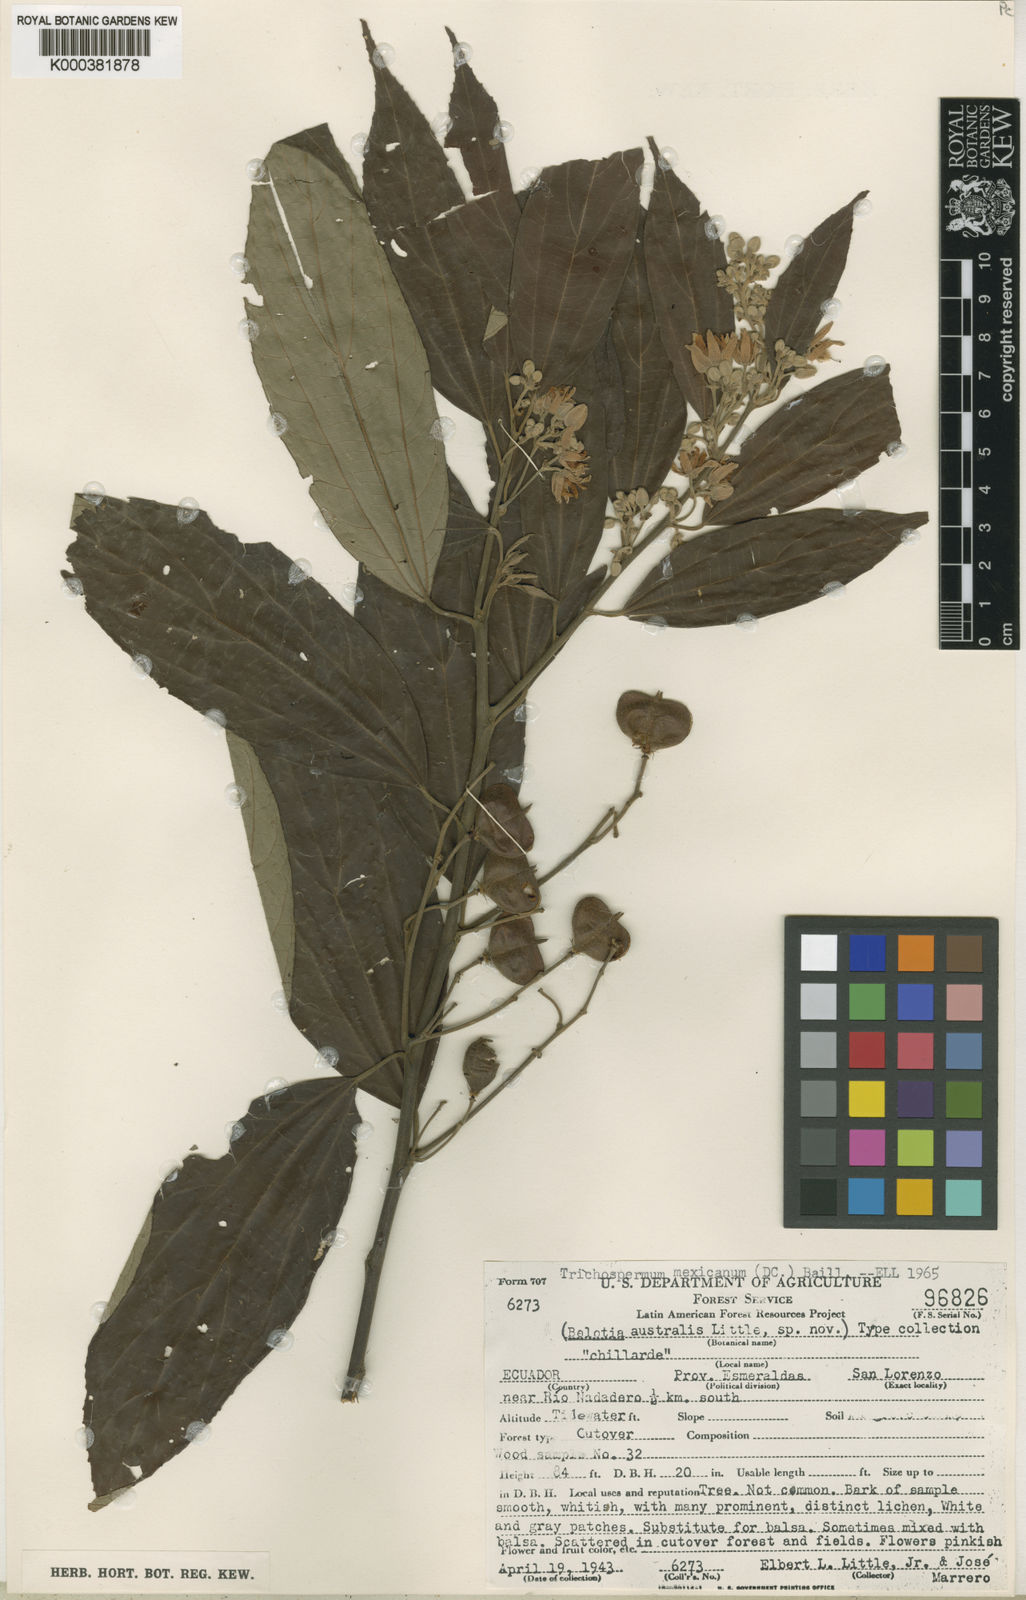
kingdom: Plantae
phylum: Tracheophyta
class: Magnoliopsida
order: Malvales
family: Malvaceae
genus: Trichospermum
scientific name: Trichospermum mexicanum
